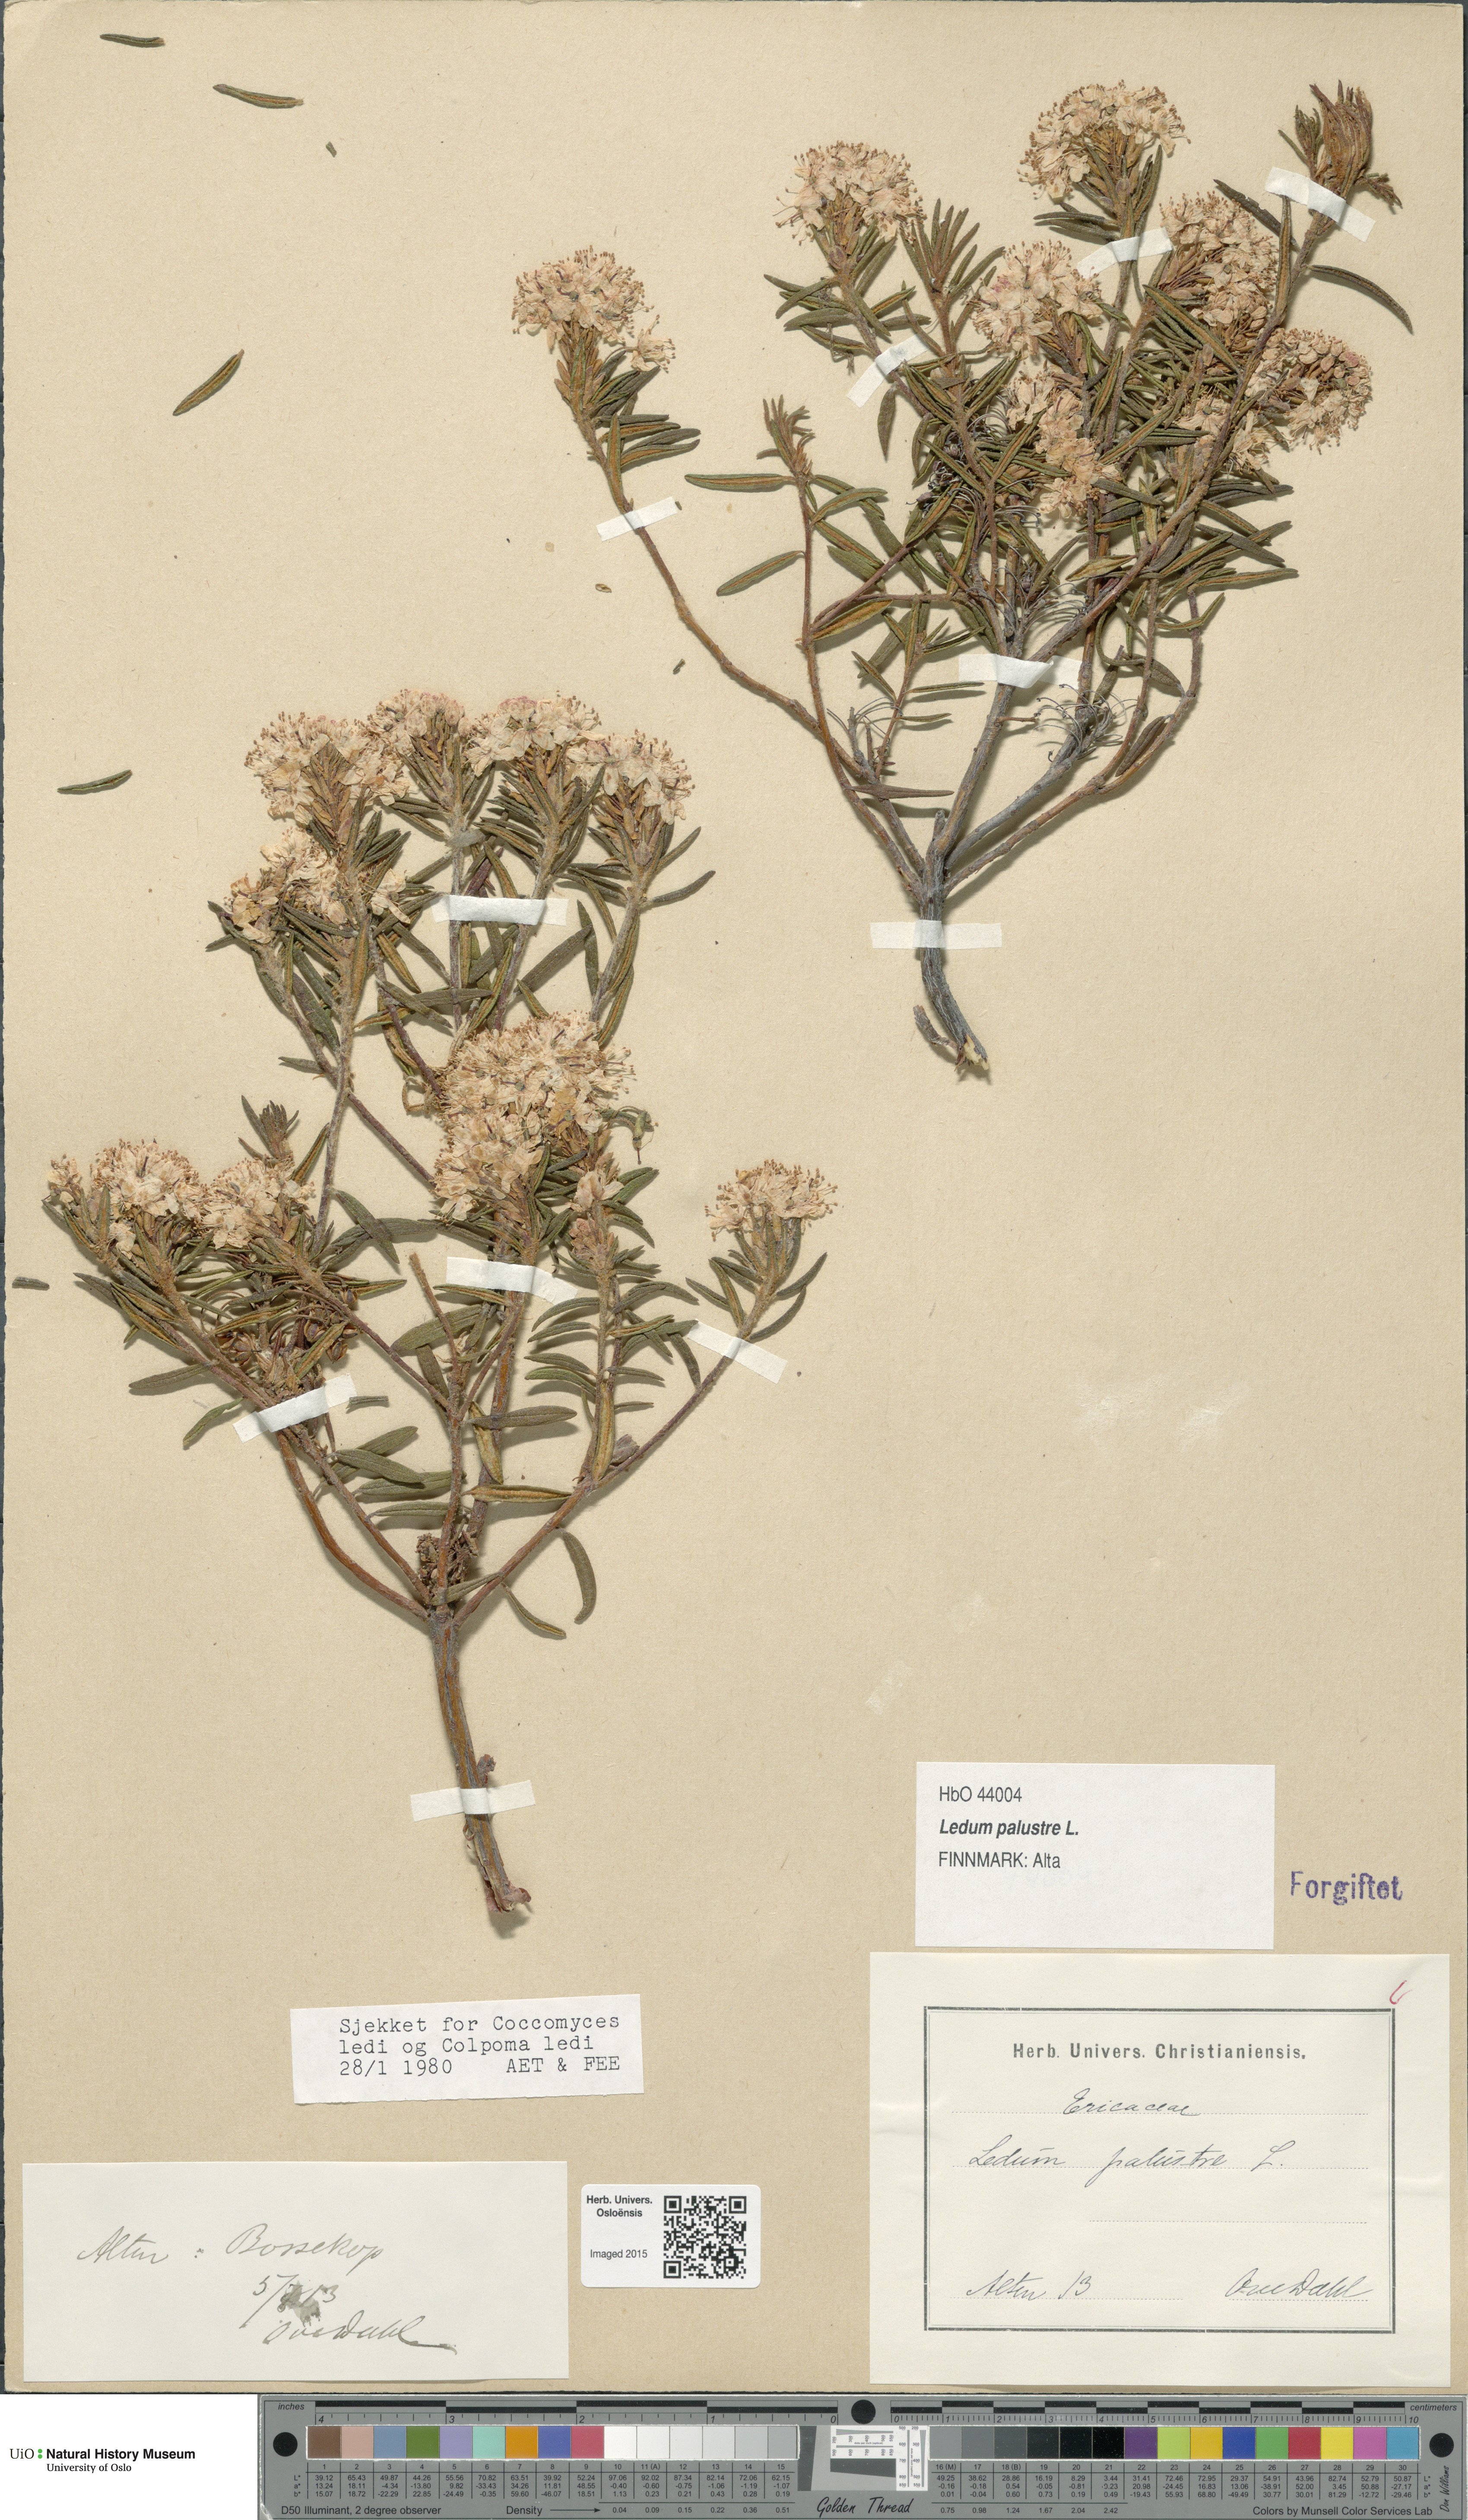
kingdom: Plantae
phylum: Tracheophyta
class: Magnoliopsida
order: Ericales
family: Ericaceae
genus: Rhododendron
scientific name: Rhododendron tomentosum
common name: Marsh labrador tea
